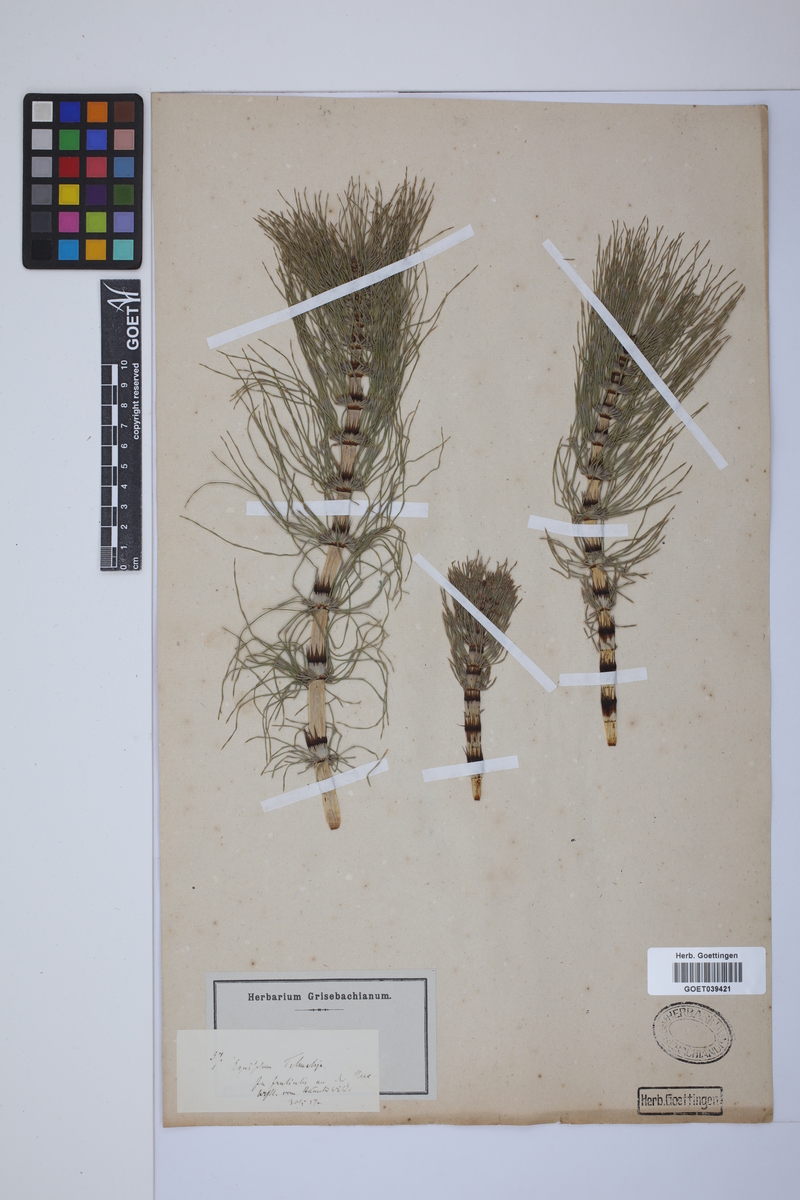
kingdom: Plantae
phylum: Tracheophyta
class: Polypodiopsida
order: Equisetales
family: Equisetaceae
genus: Equisetum
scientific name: Equisetum telmateia
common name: Great horsetail
